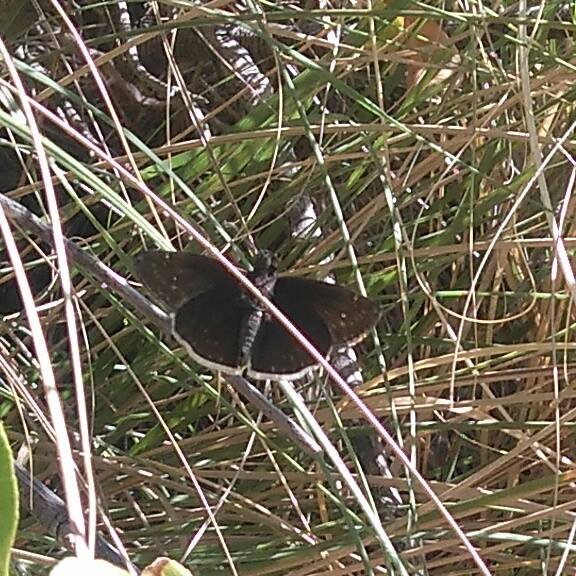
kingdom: Animalia
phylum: Arthropoda
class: Insecta
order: Lepidoptera
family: Hesperiidae
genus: Erynnis
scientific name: Erynnis funeralis
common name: Funereal Duskywing
